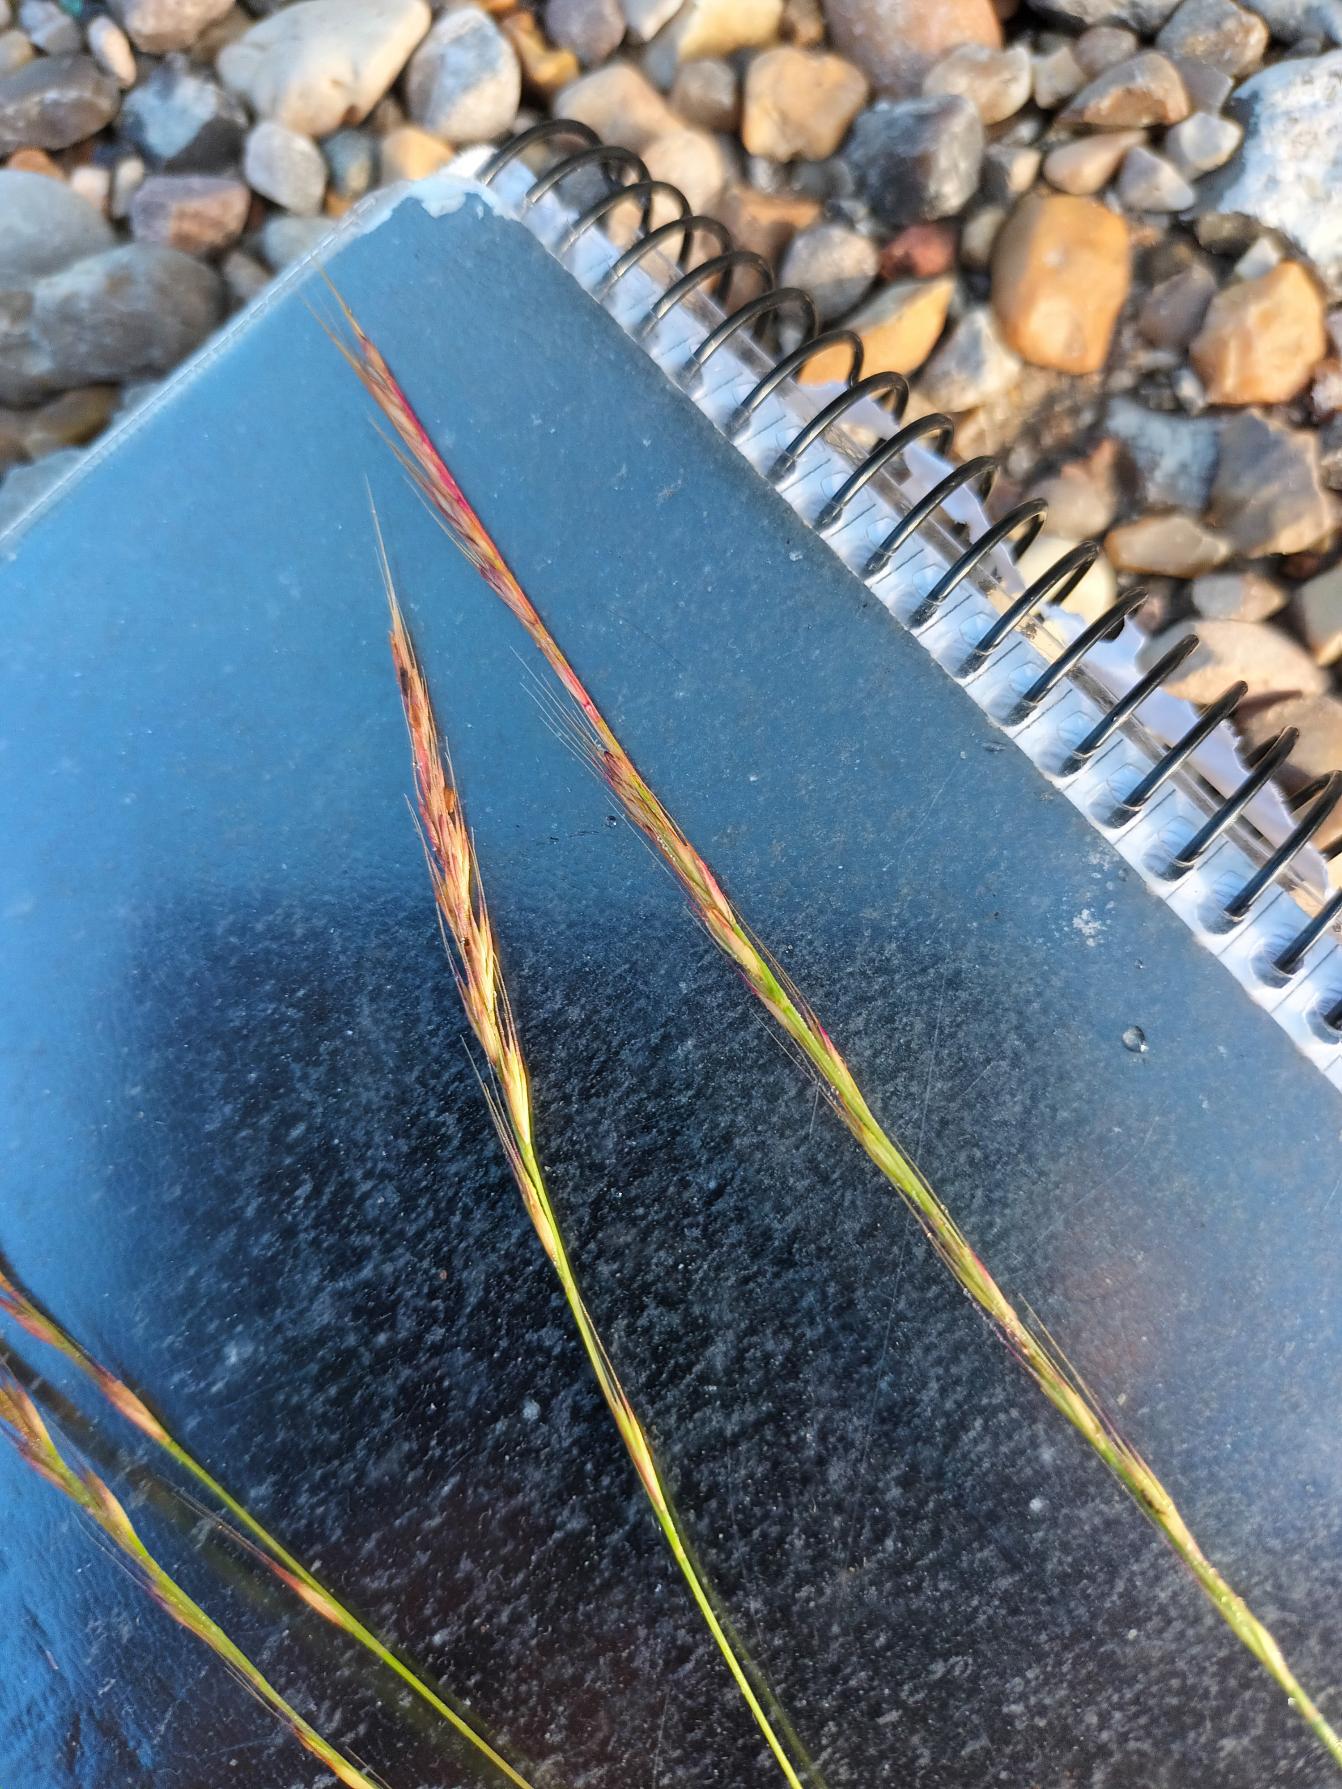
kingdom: Plantae
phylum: Tracheophyta
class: Liliopsida
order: Poales
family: Poaceae
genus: Festuca
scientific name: Festuca
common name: Væselhaleslægten
